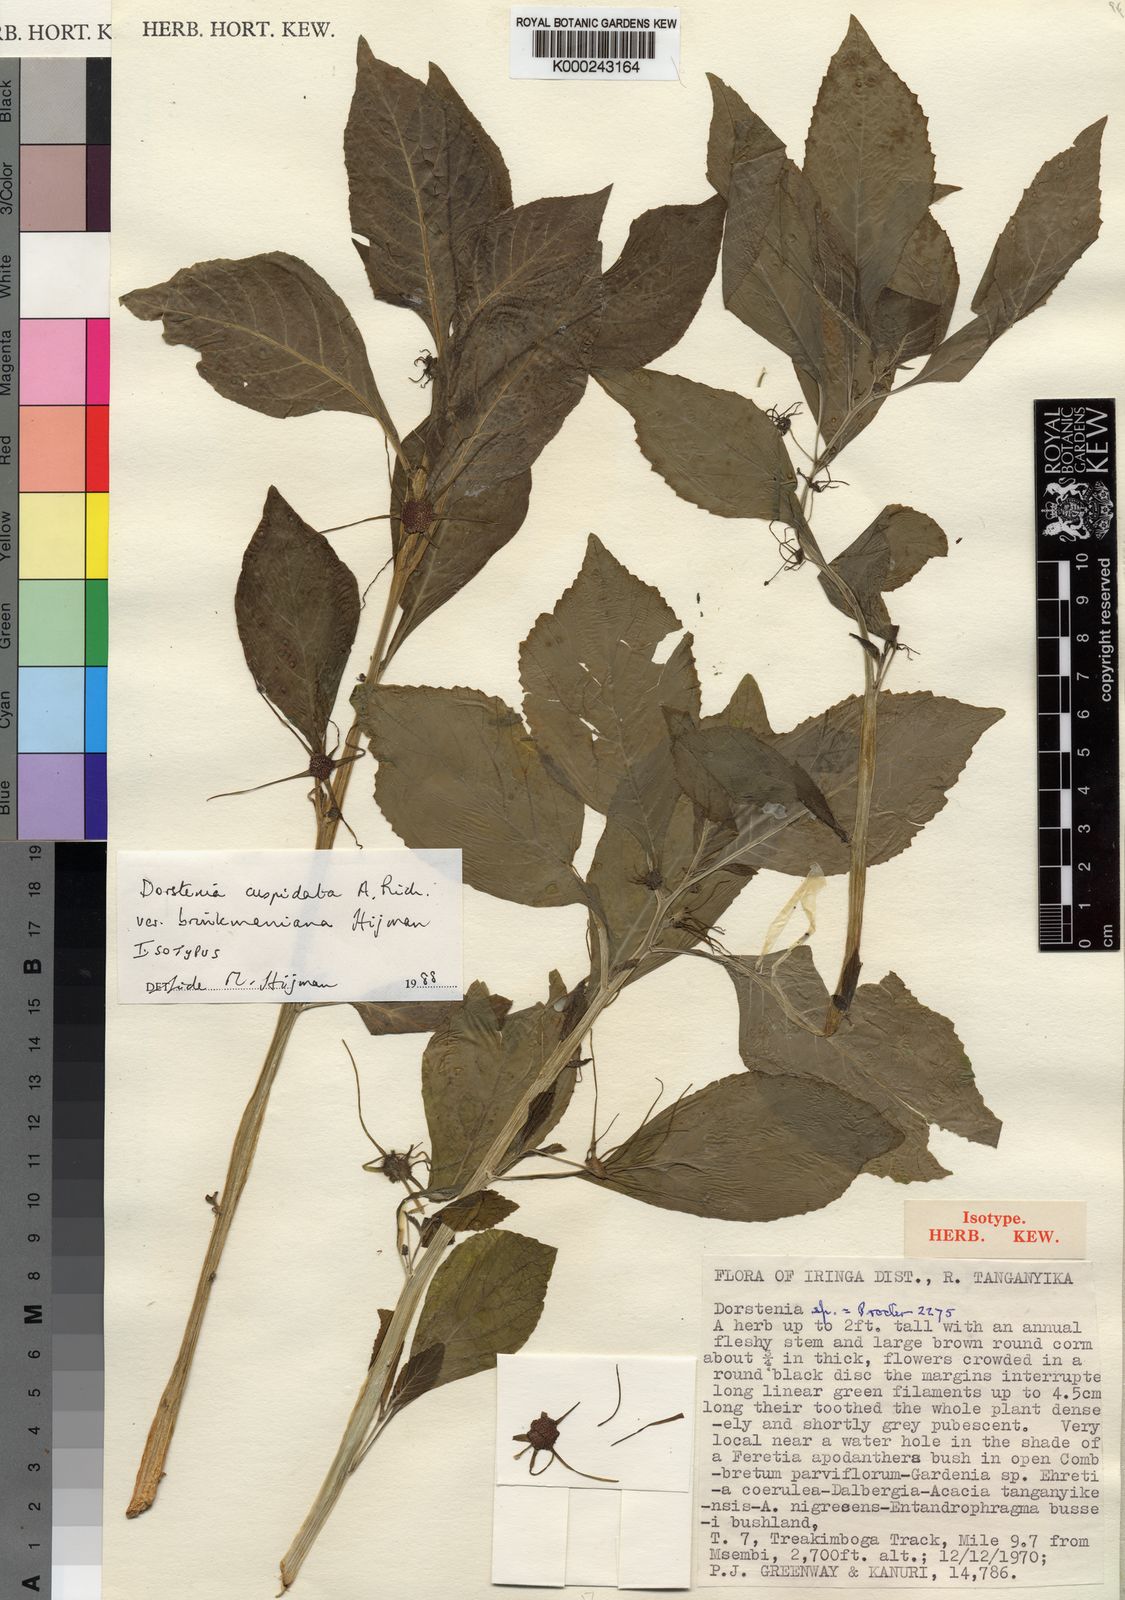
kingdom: Plantae
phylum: Tracheophyta
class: Magnoliopsida
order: Rosales
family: Moraceae
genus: Dorstenia
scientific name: Dorstenia cuspidata
